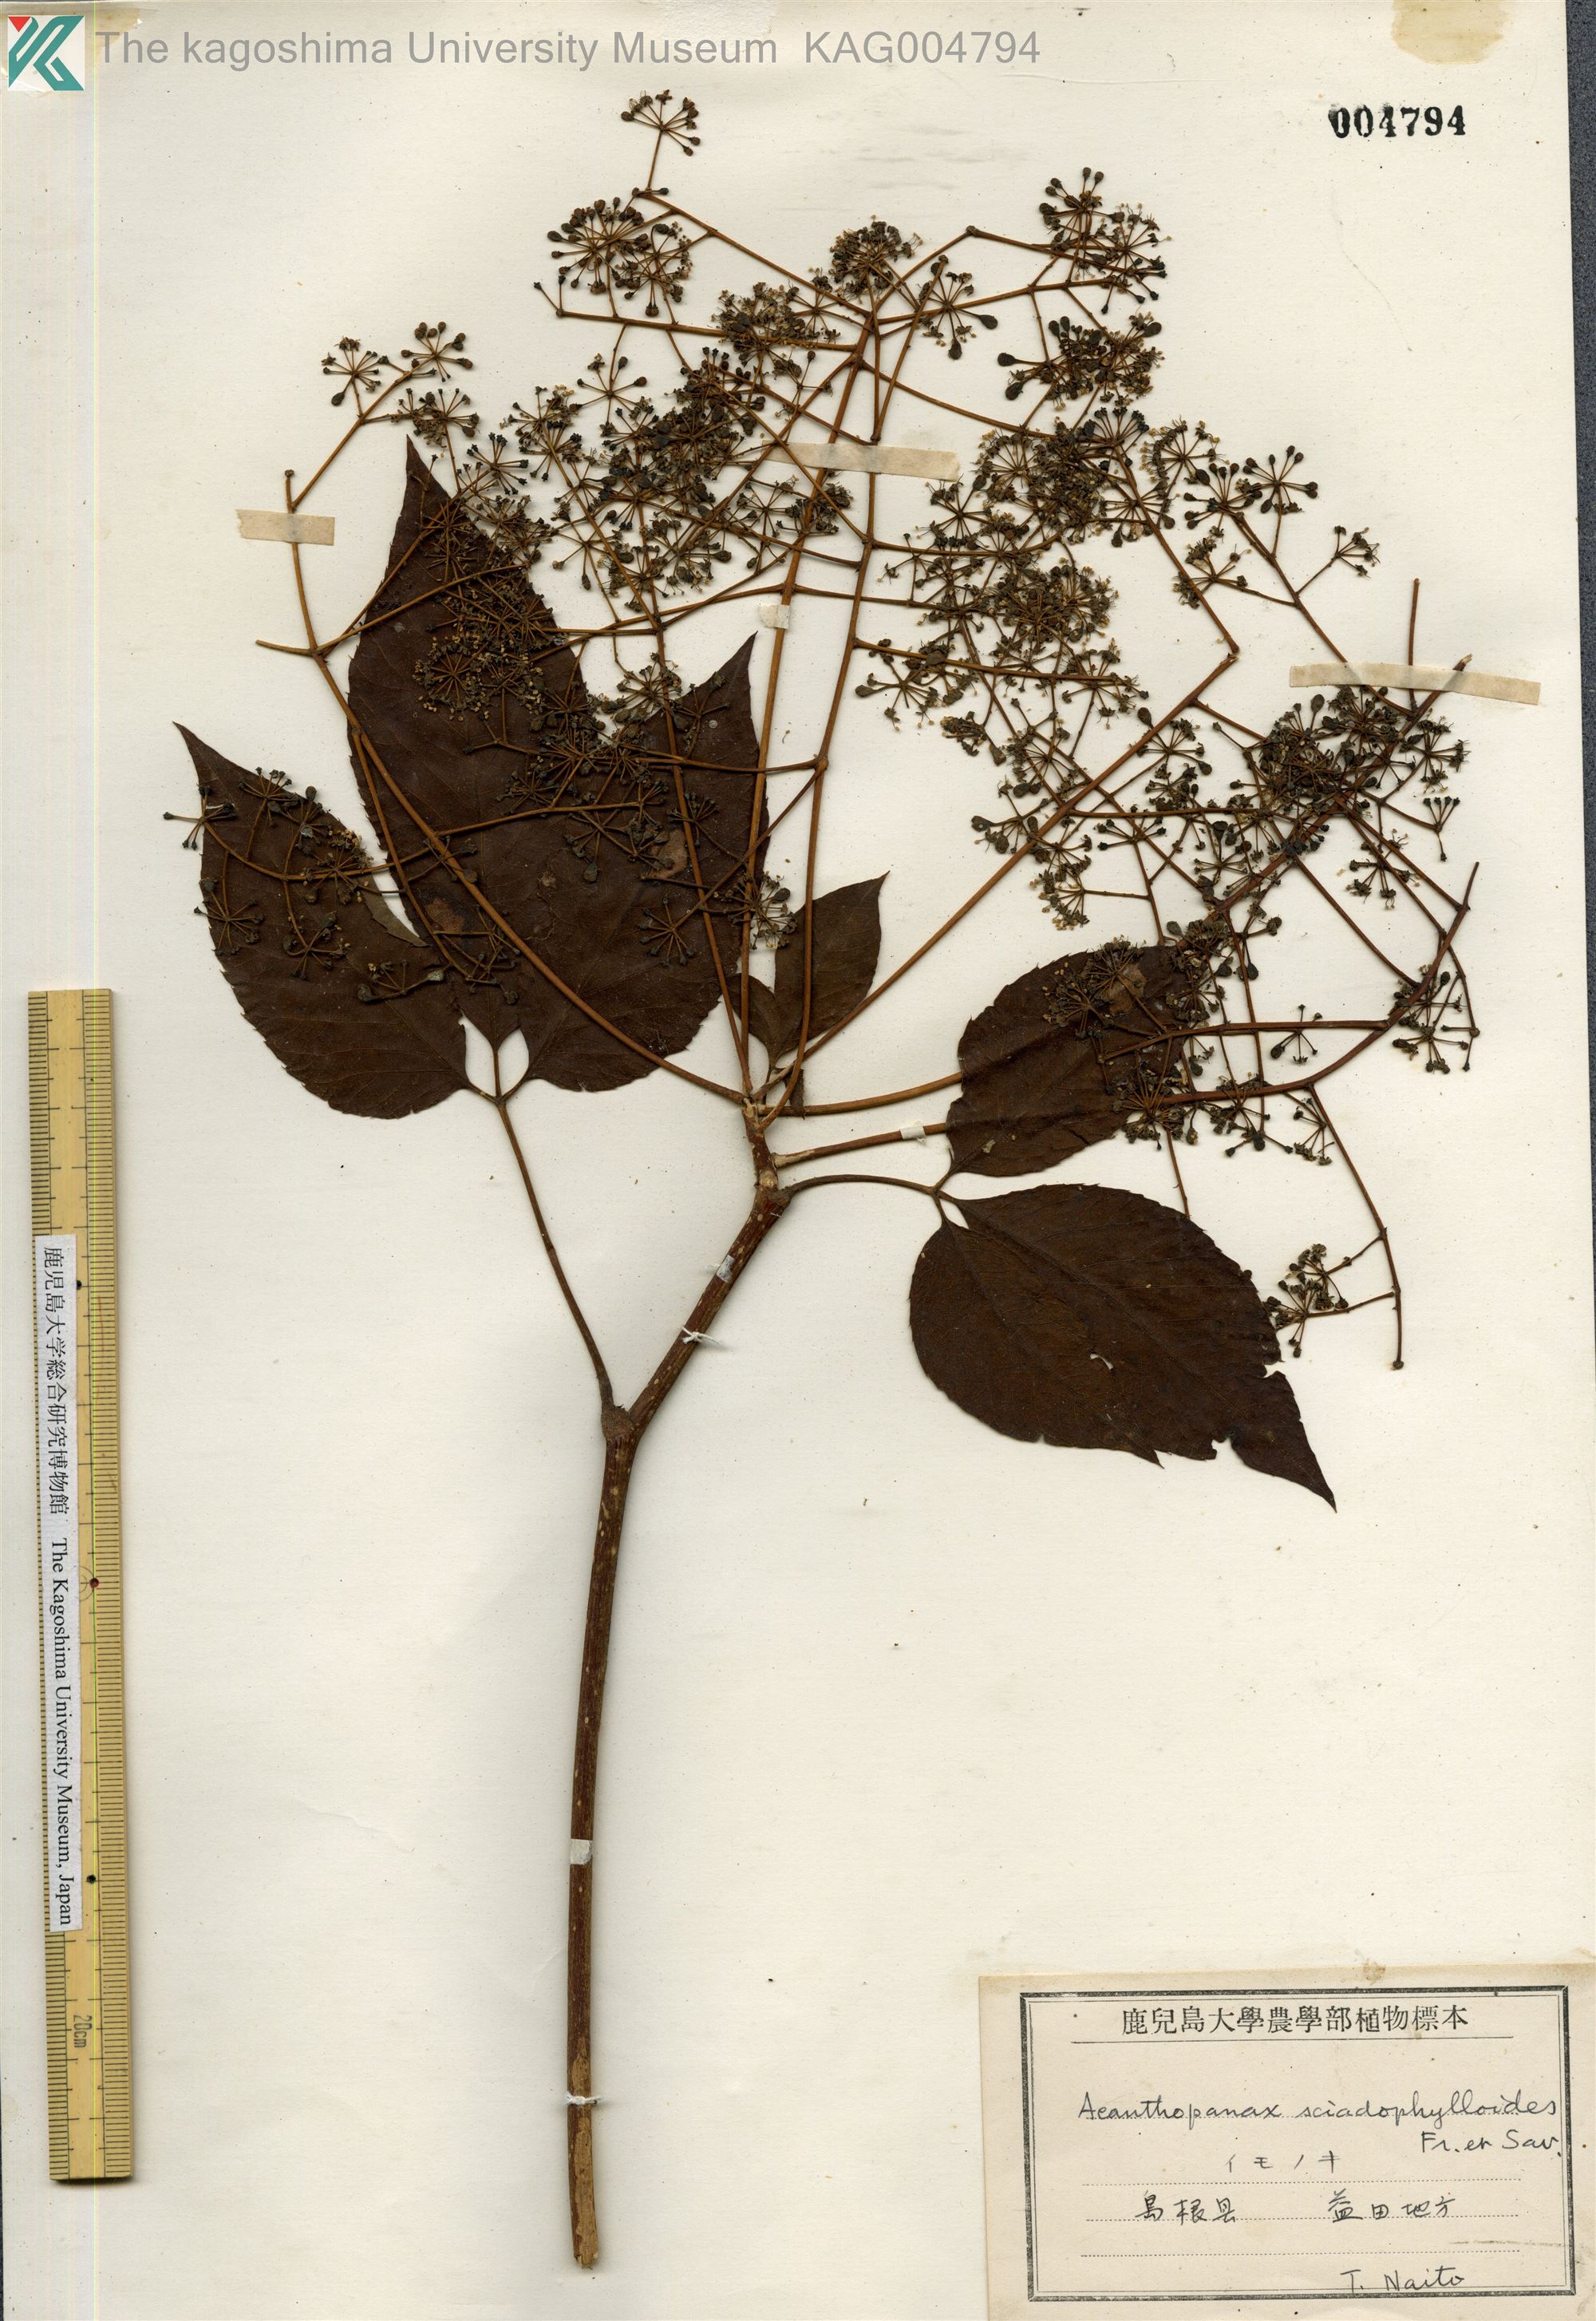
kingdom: Plantae
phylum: Tracheophyta
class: Magnoliopsida
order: Apiales
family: Araliaceae
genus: Chengiopanax
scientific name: Chengiopanax sciadophylloides
